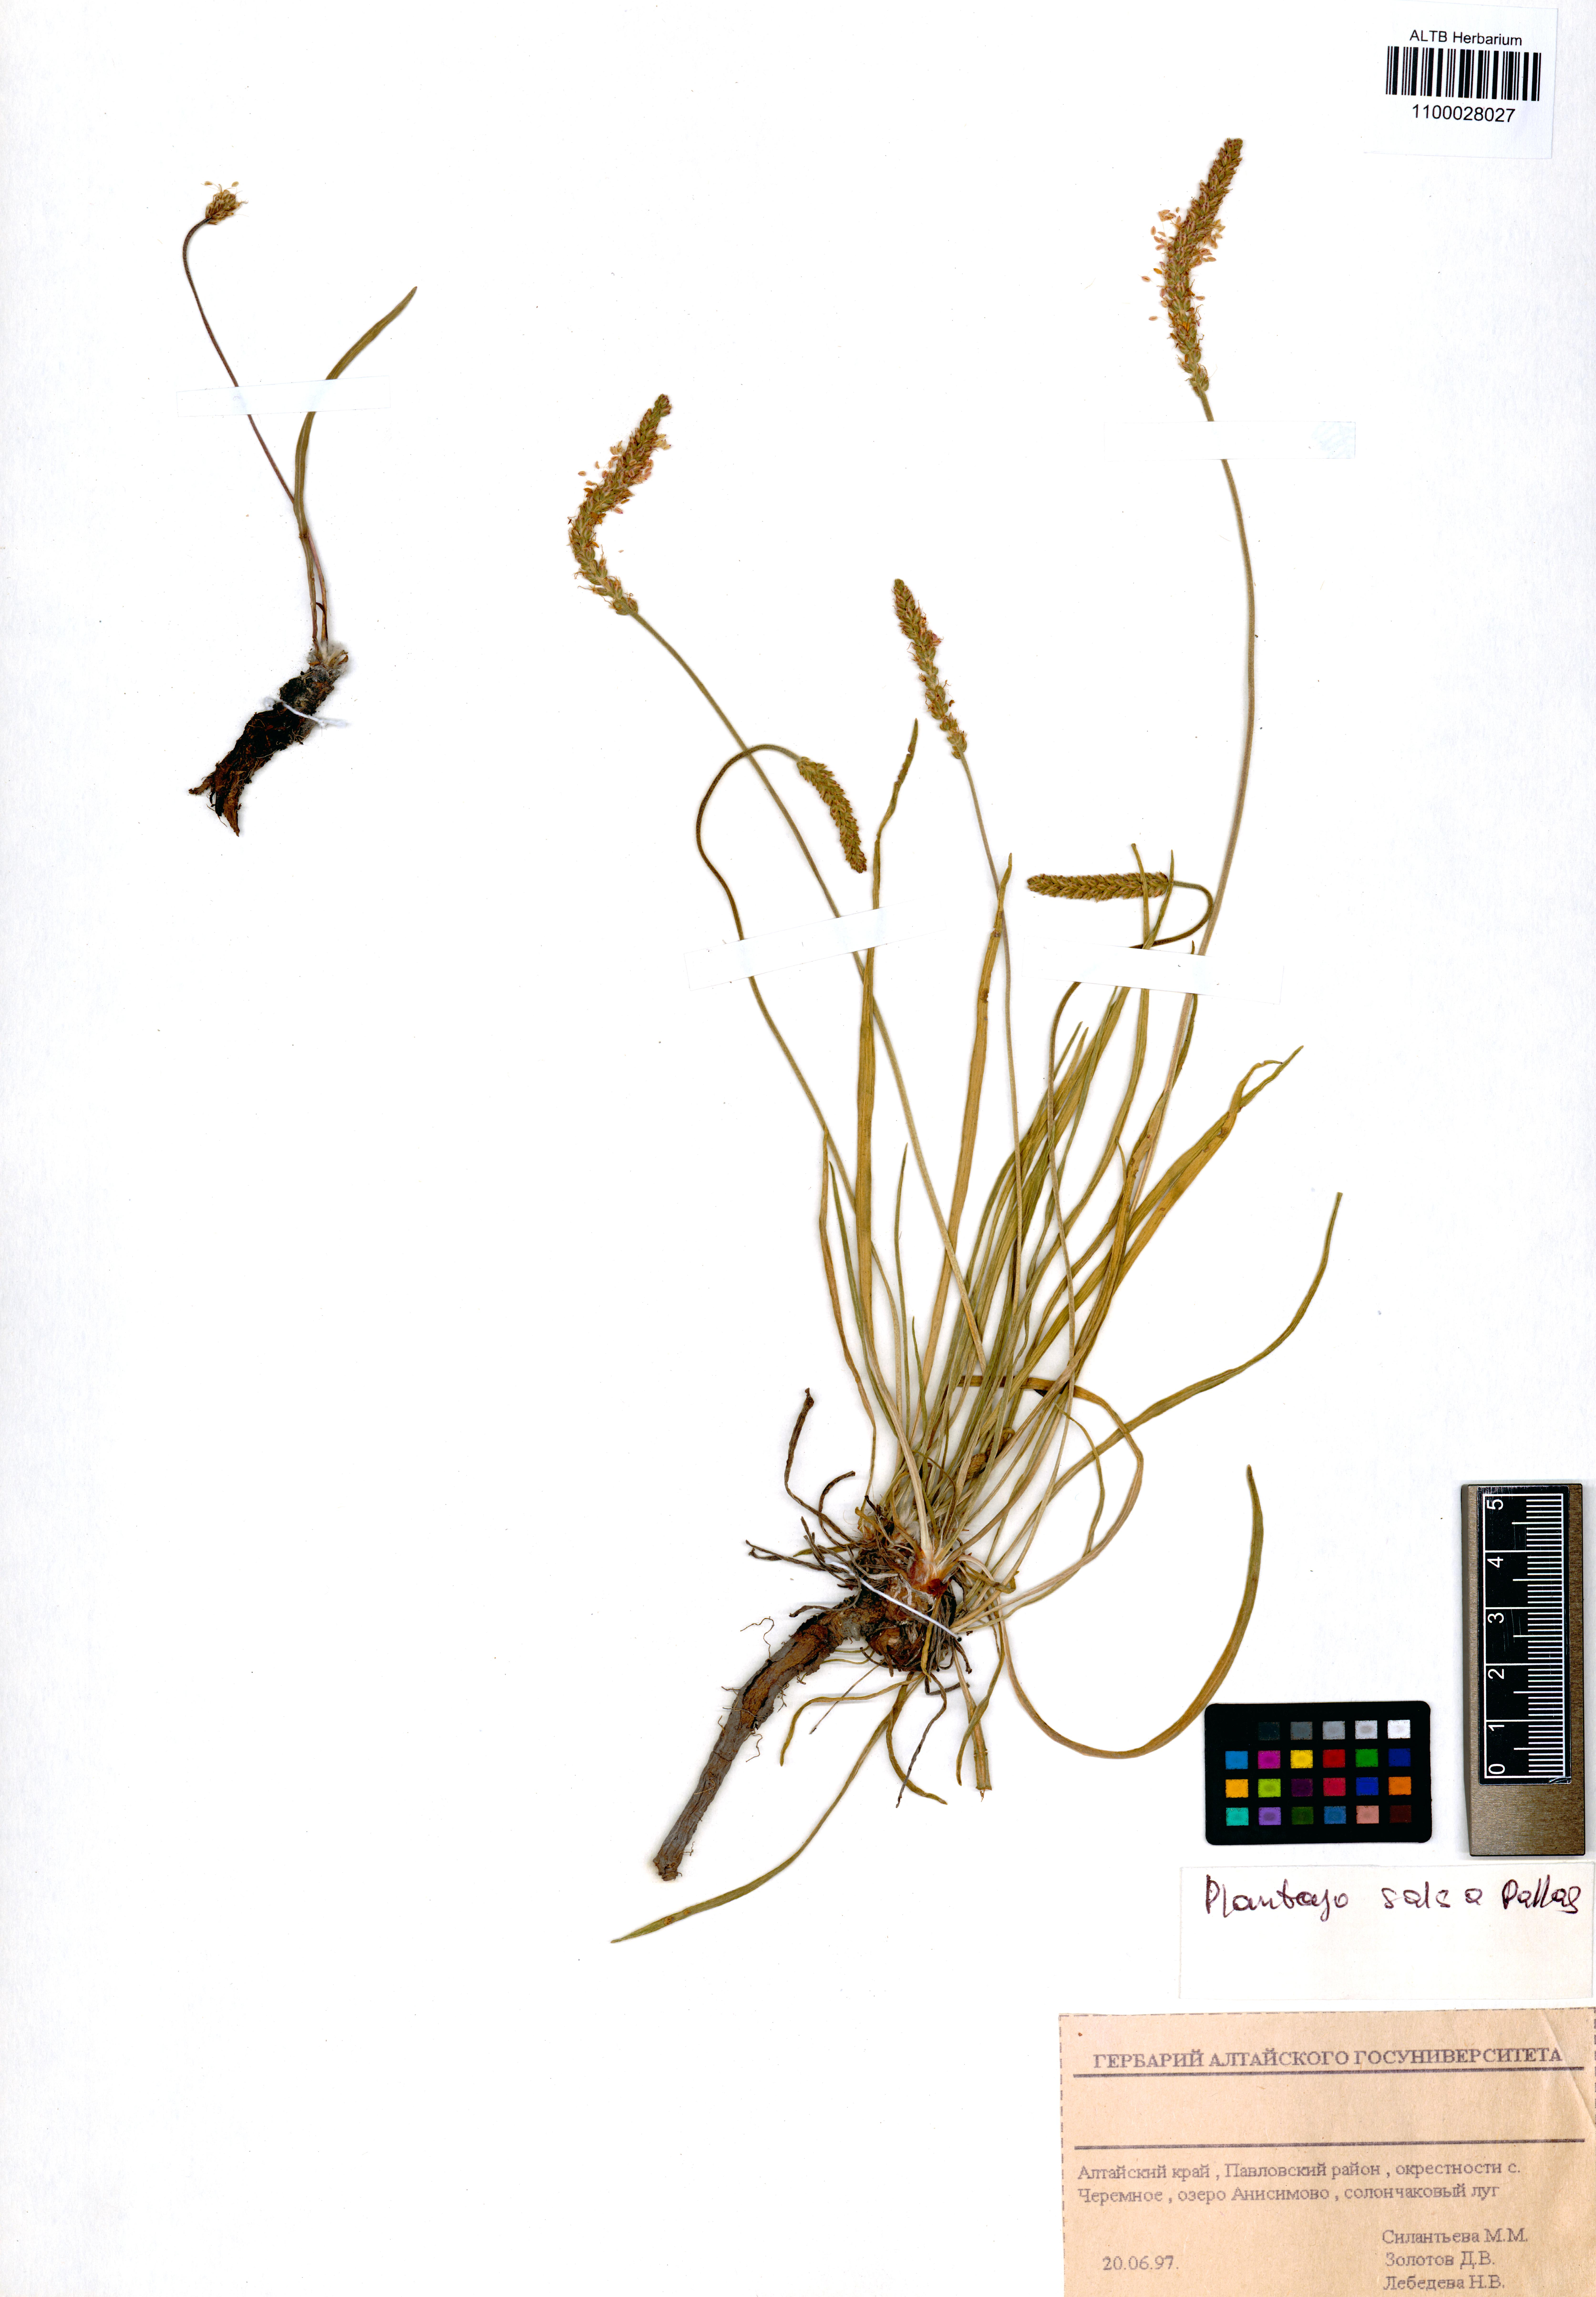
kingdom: Plantae
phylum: Tracheophyta
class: Magnoliopsida
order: Lamiales
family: Plantaginaceae
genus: Plantago
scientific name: Plantago salsa
